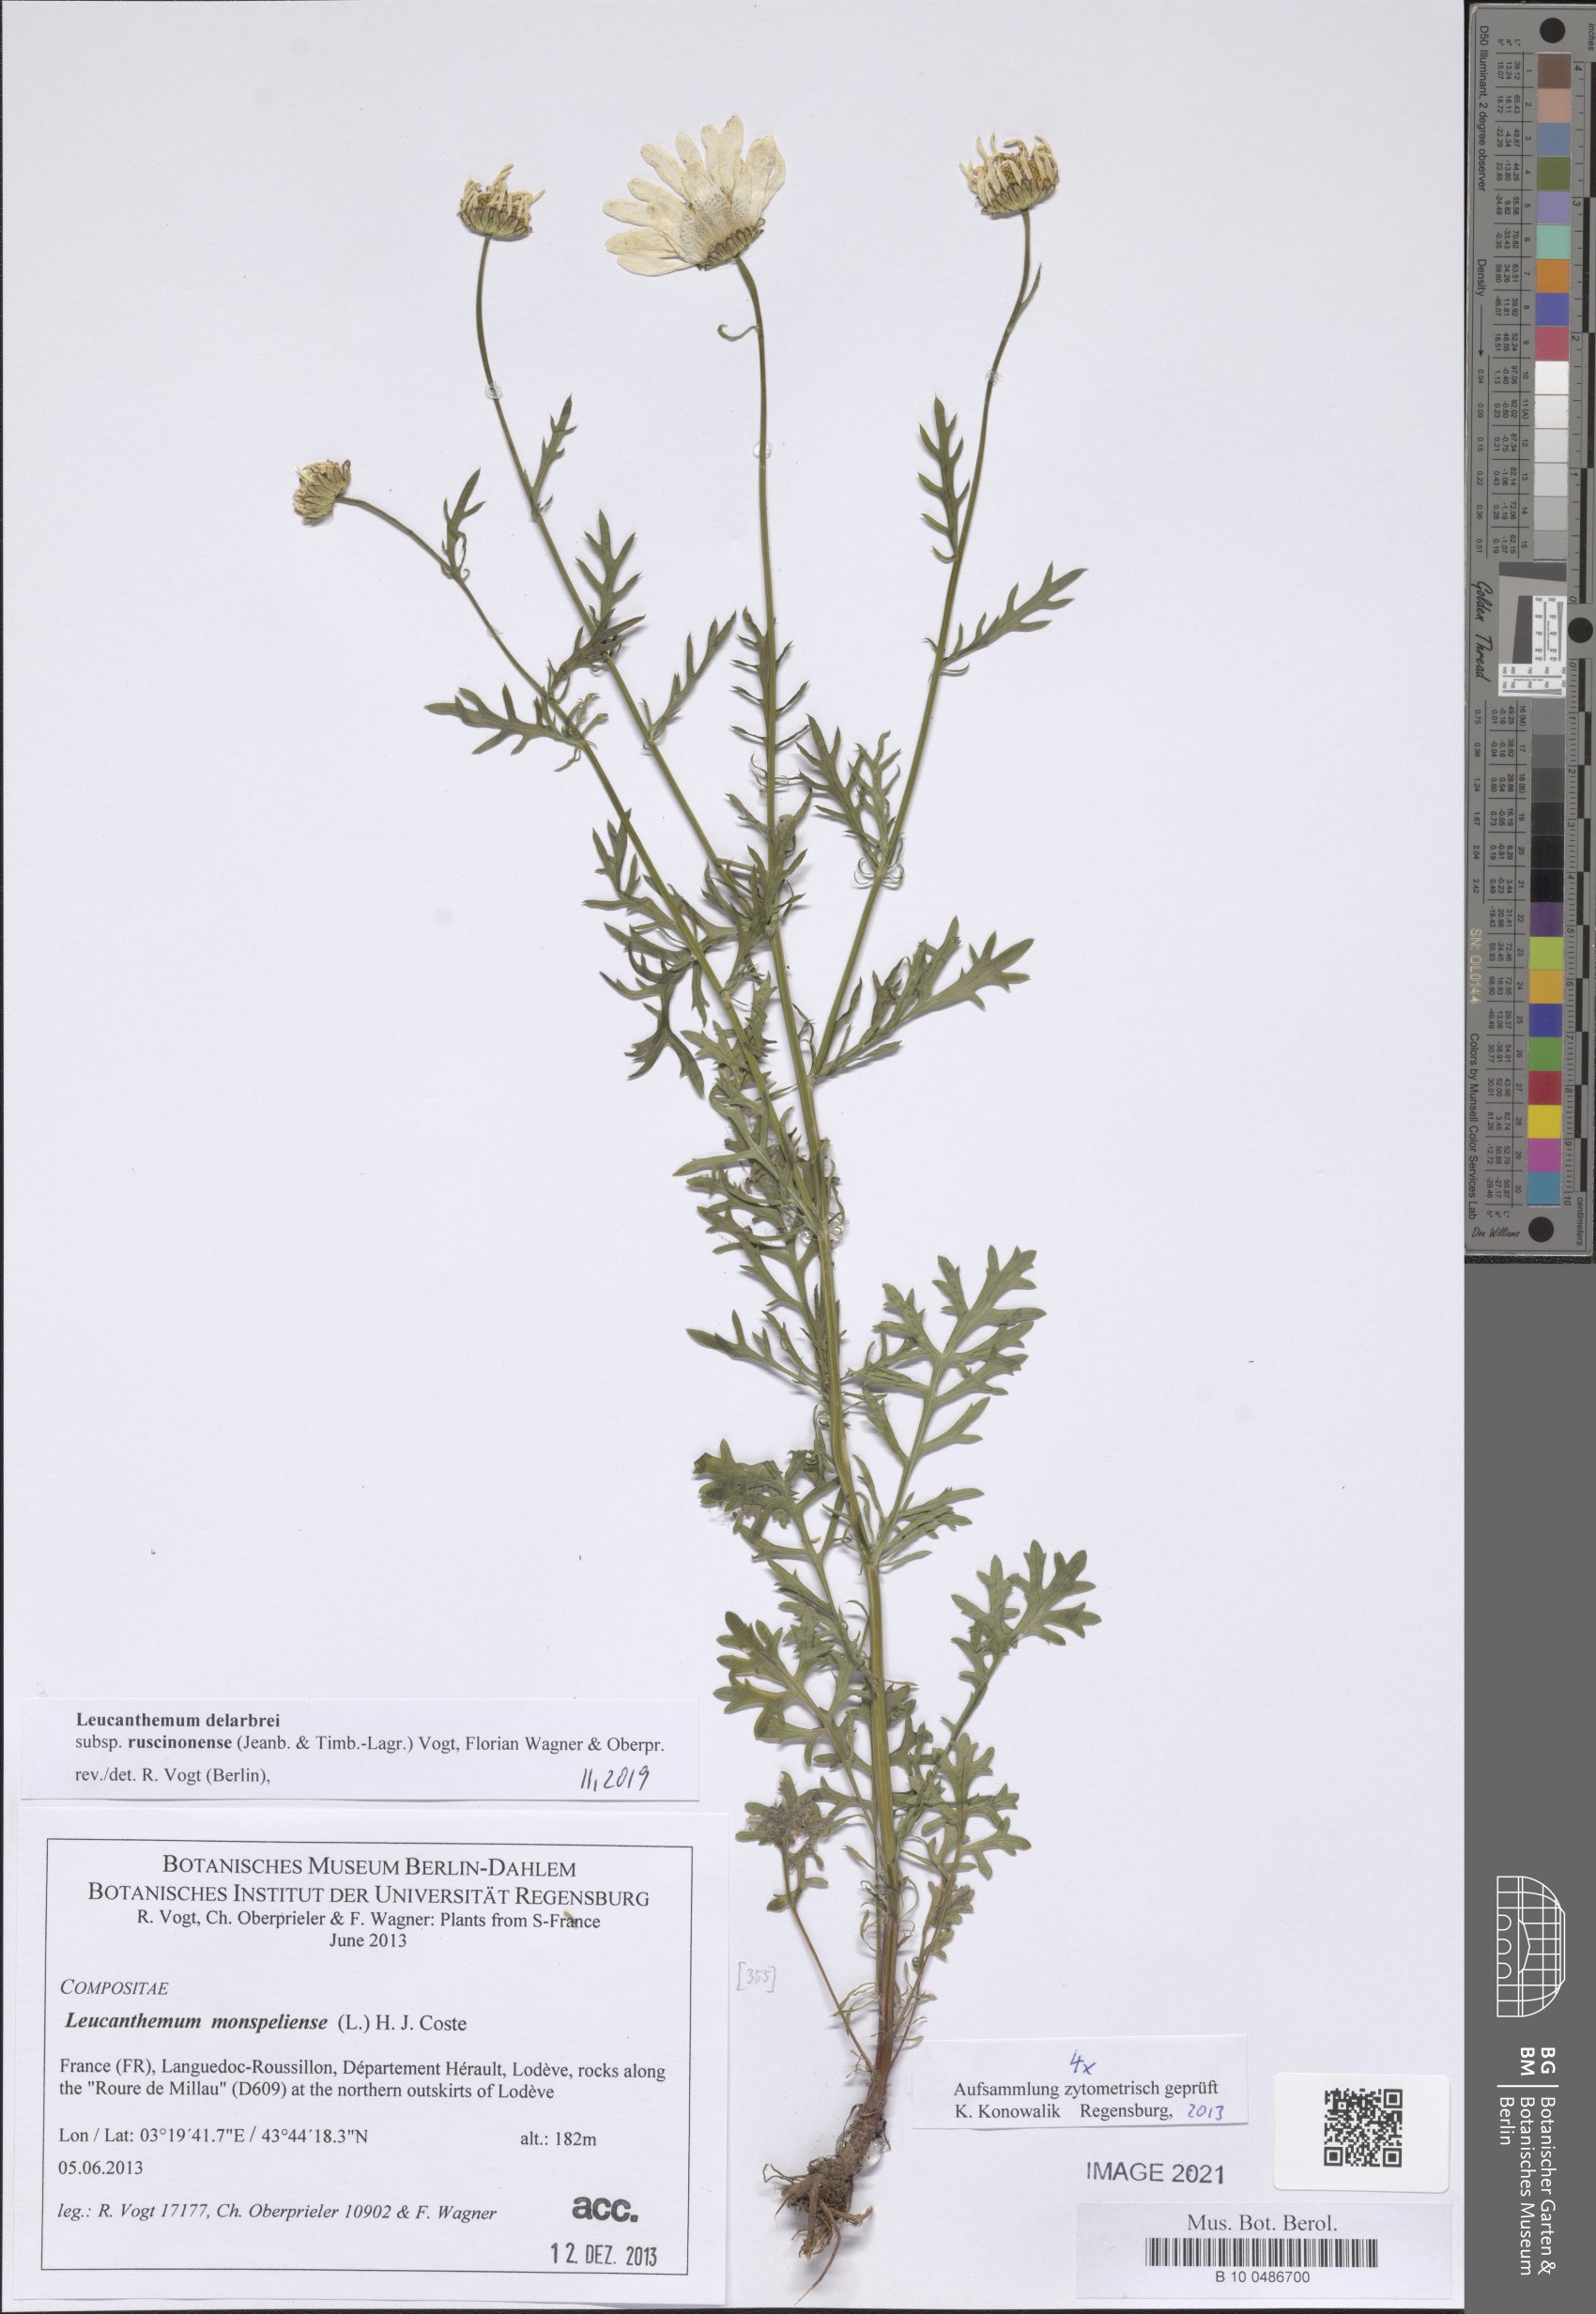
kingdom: Plantae
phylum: Tracheophyta
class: Magnoliopsida
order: Asterales
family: Asteraceae
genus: Leucanthemum
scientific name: Leucanthemum delarbrei
